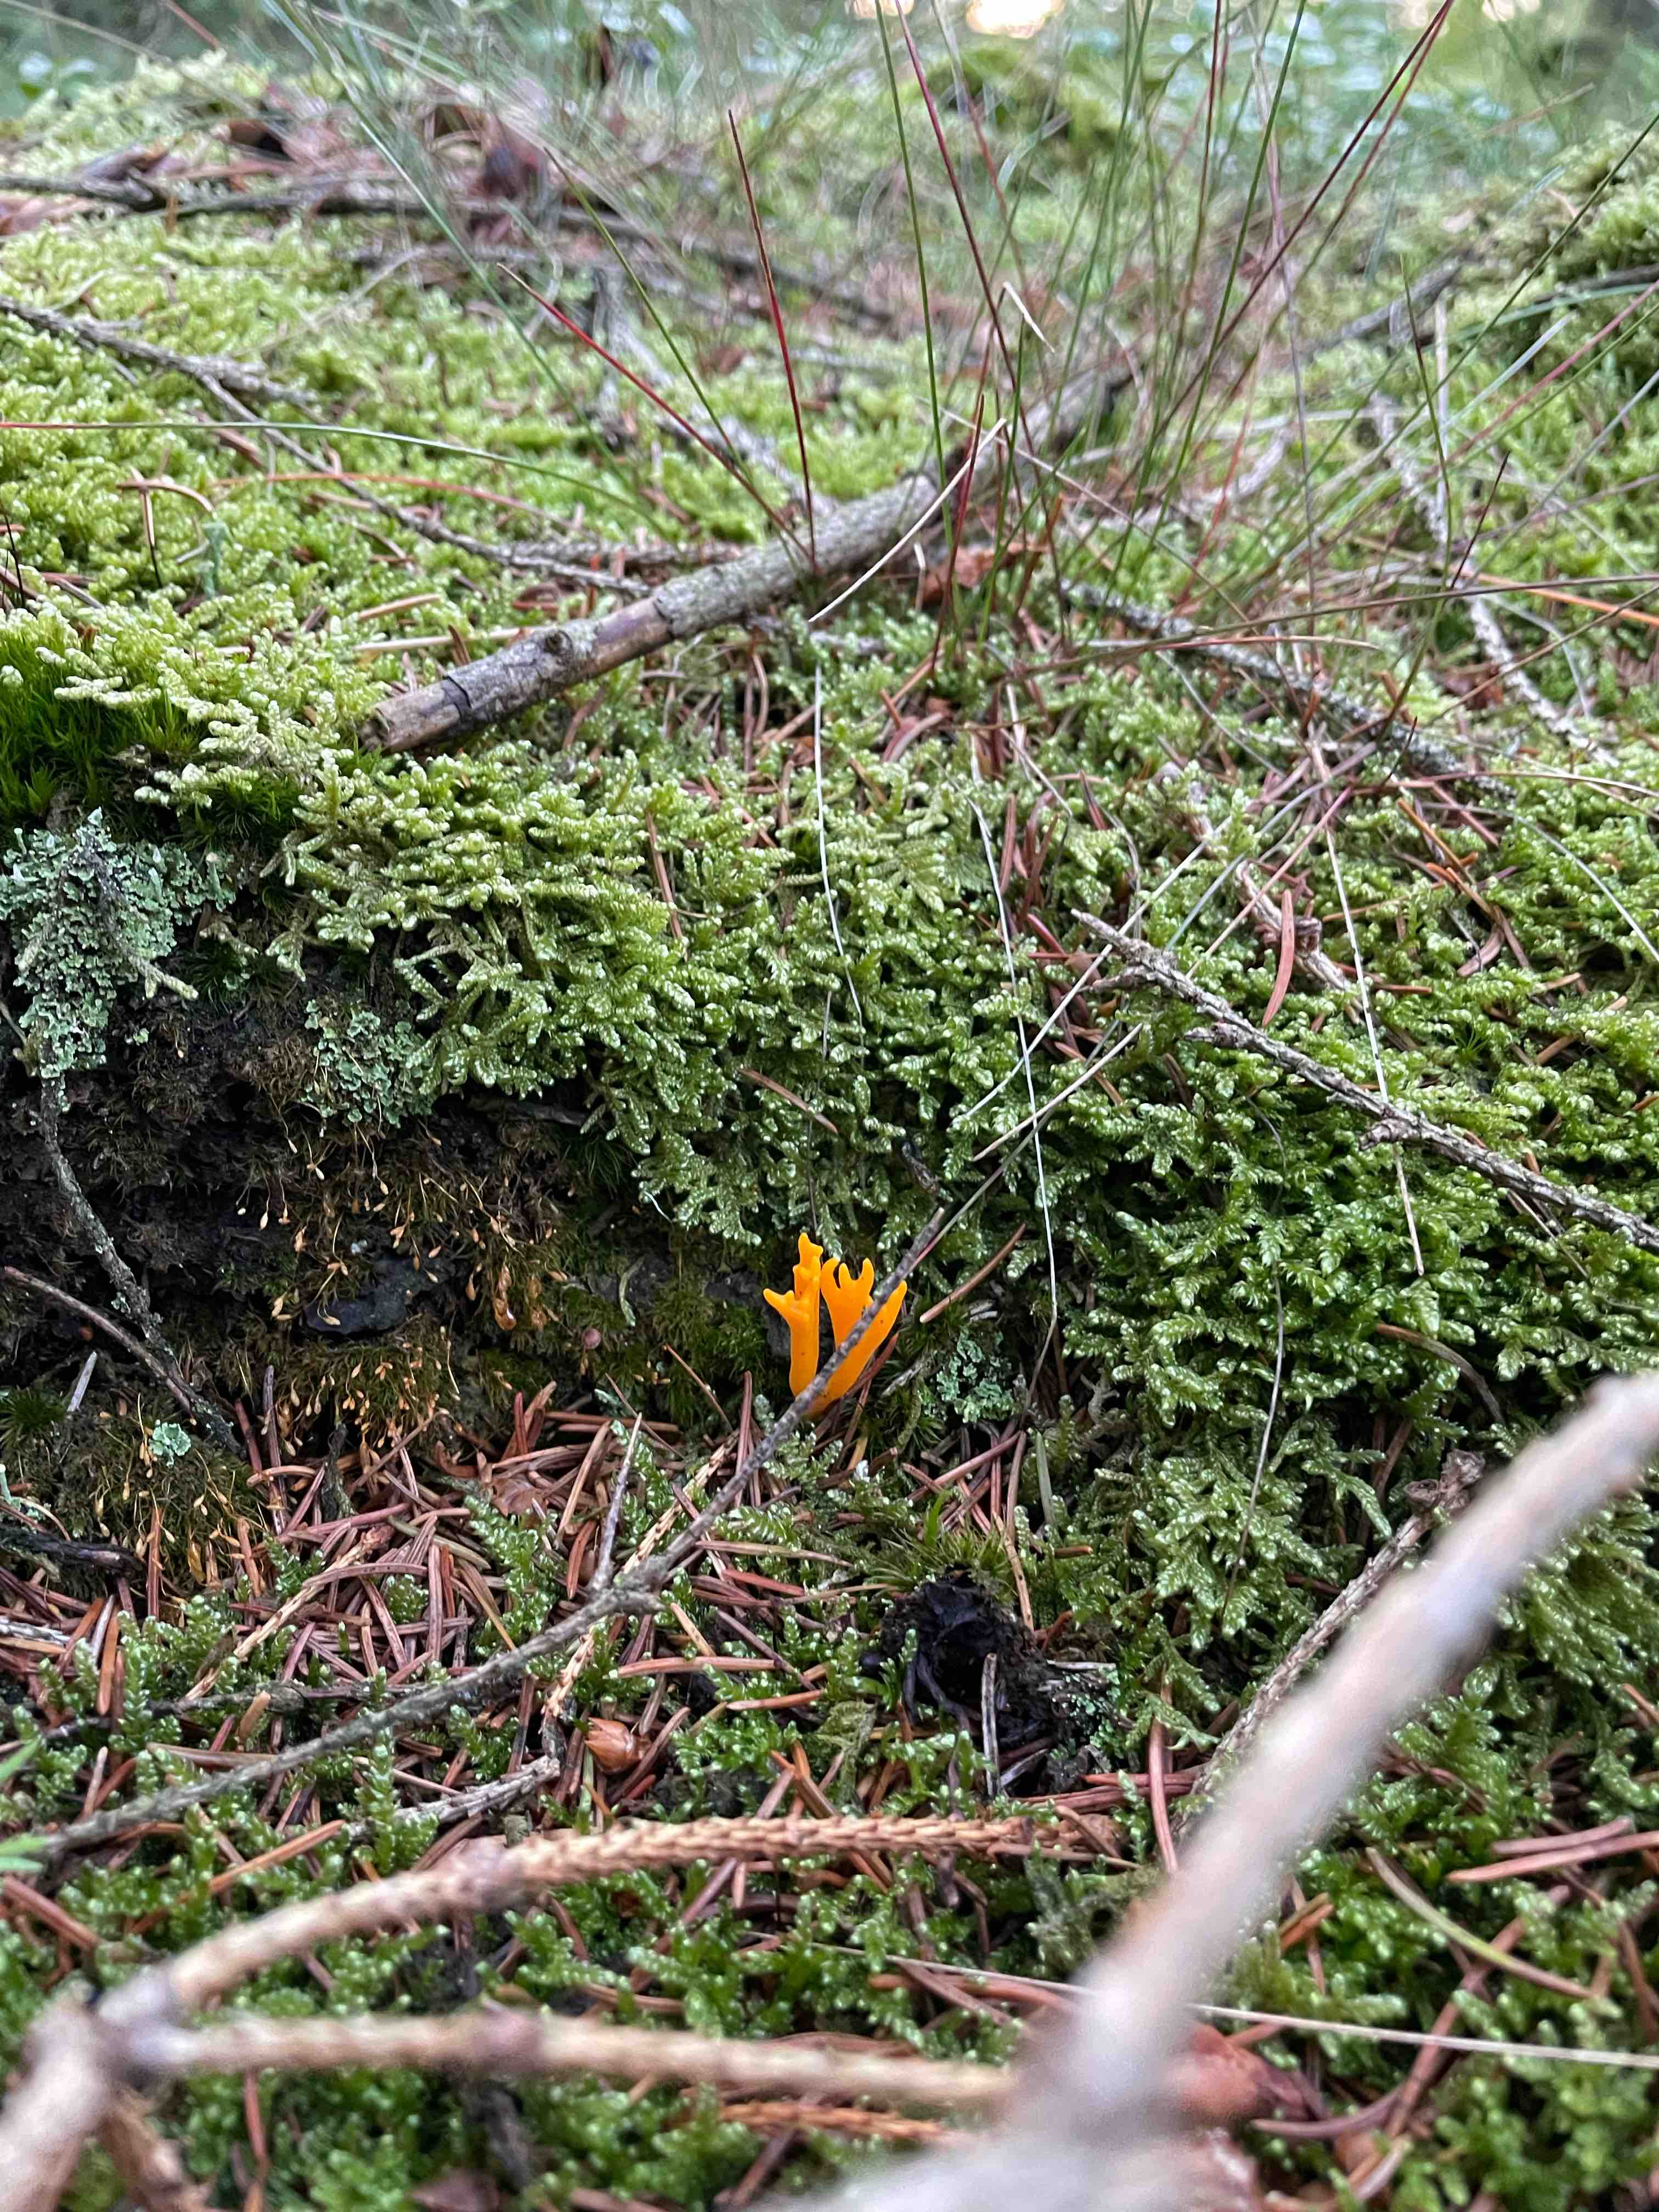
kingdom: Fungi
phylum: Basidiomycota
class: Dacrymycetes
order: Dacrymycetales
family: Dacrymycetaceae
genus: Calocera
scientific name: Calocera viscosa
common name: almindelig guldgaffel
